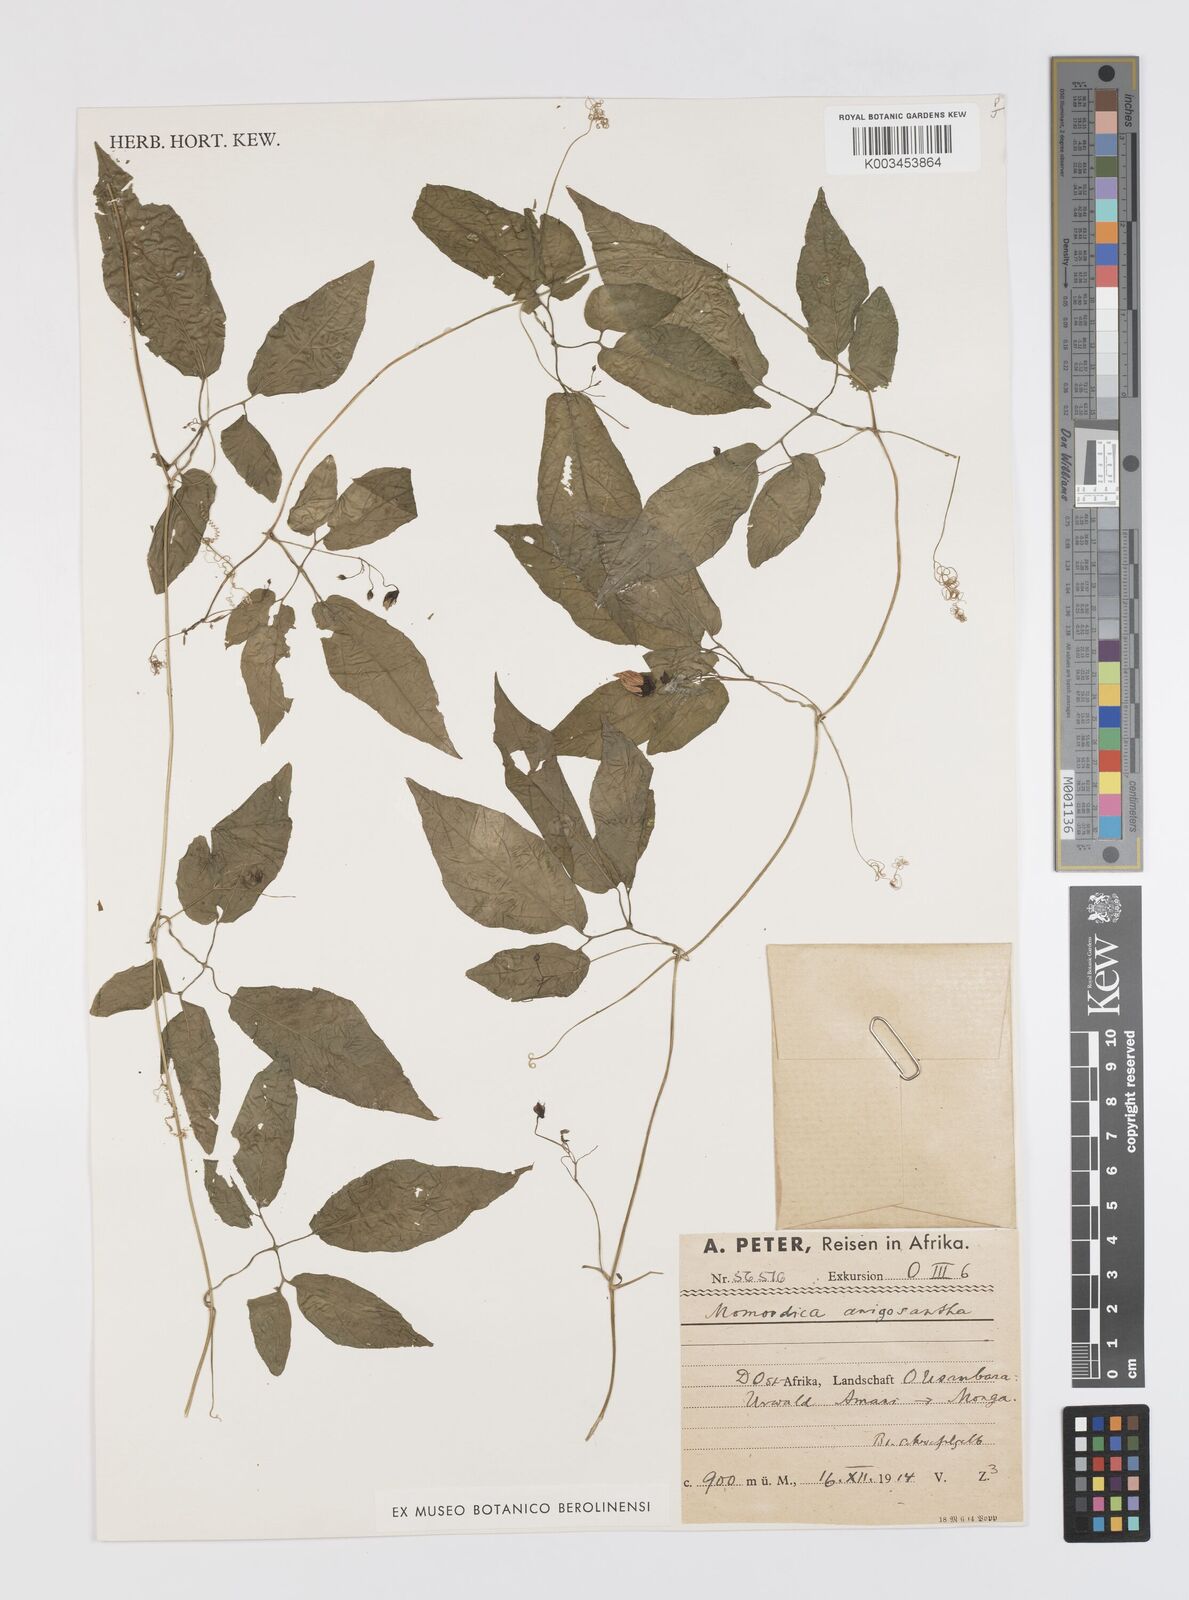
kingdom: Plantae
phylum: Tracheophyta
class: Magnoliopsida
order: Cucurbitales
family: Cucurbitaceae
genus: Momordica
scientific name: Momordica anigosantha
